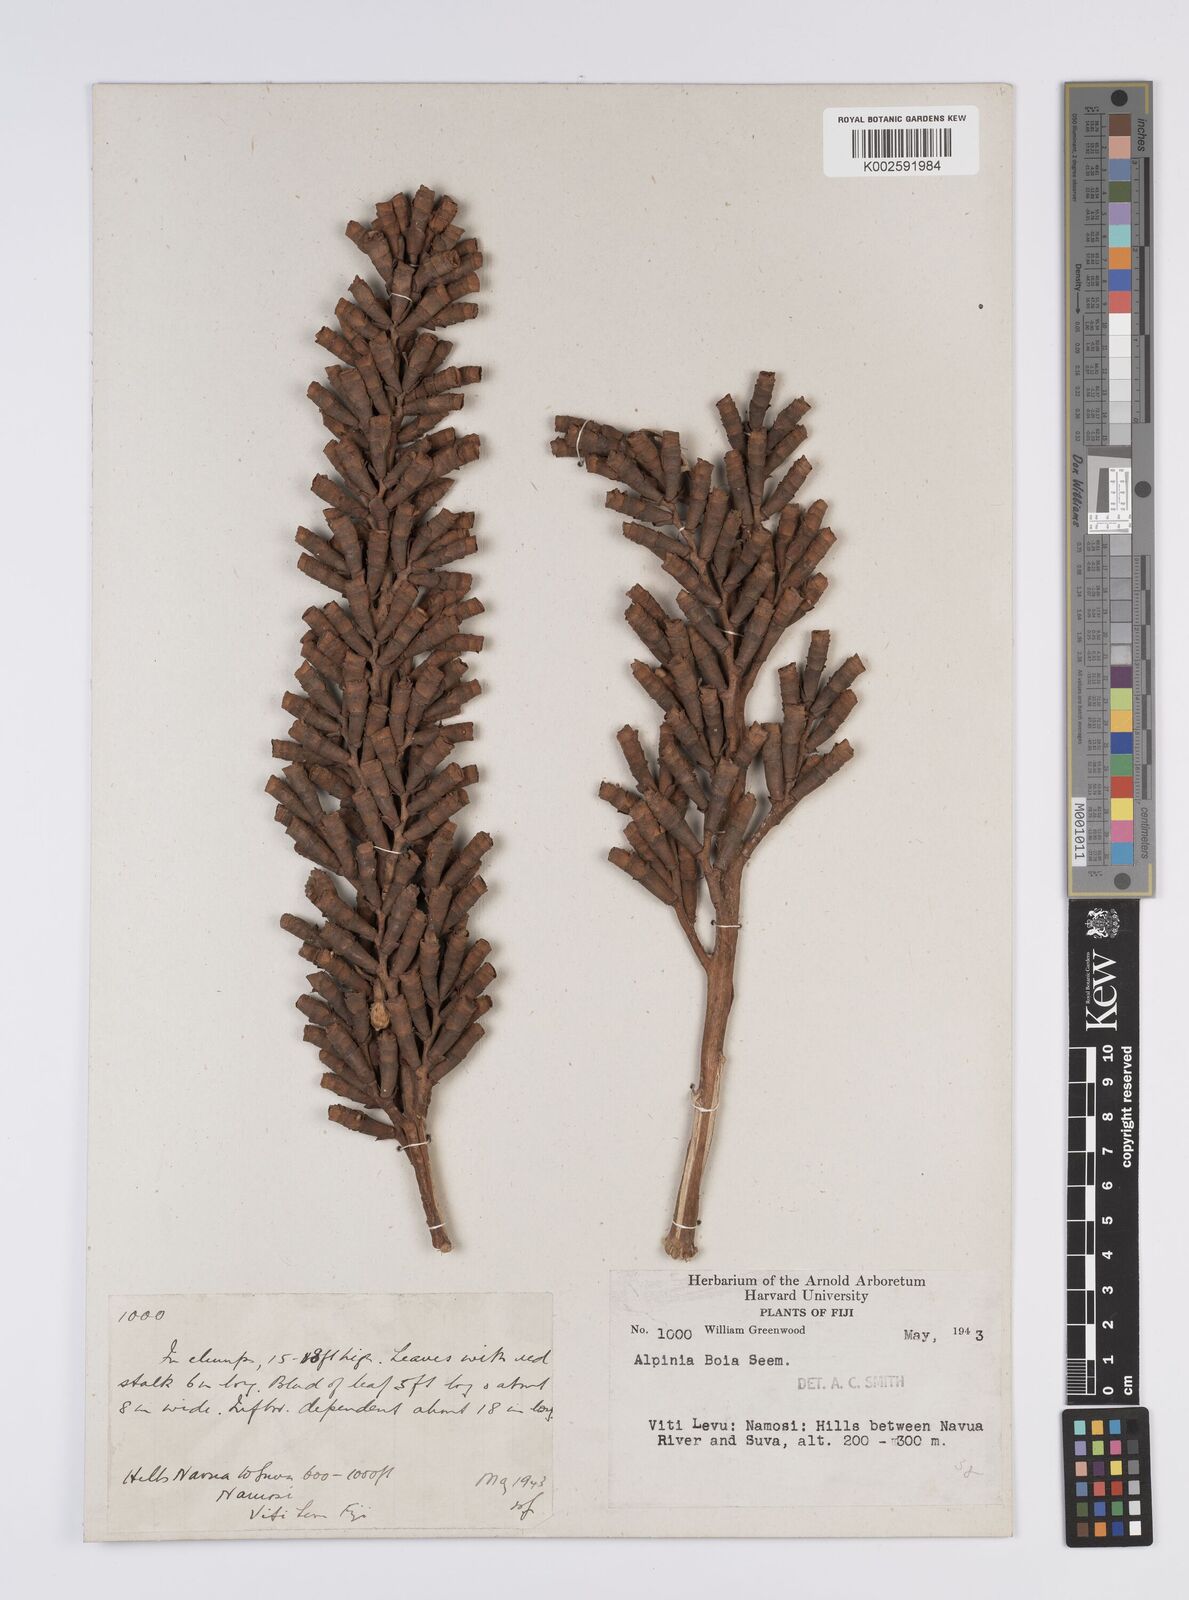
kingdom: Plantae
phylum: Tracheophyta
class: Liliopsida
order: Zingiberales
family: Zingiberaceae
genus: Alpinia
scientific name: Alpinia boia
